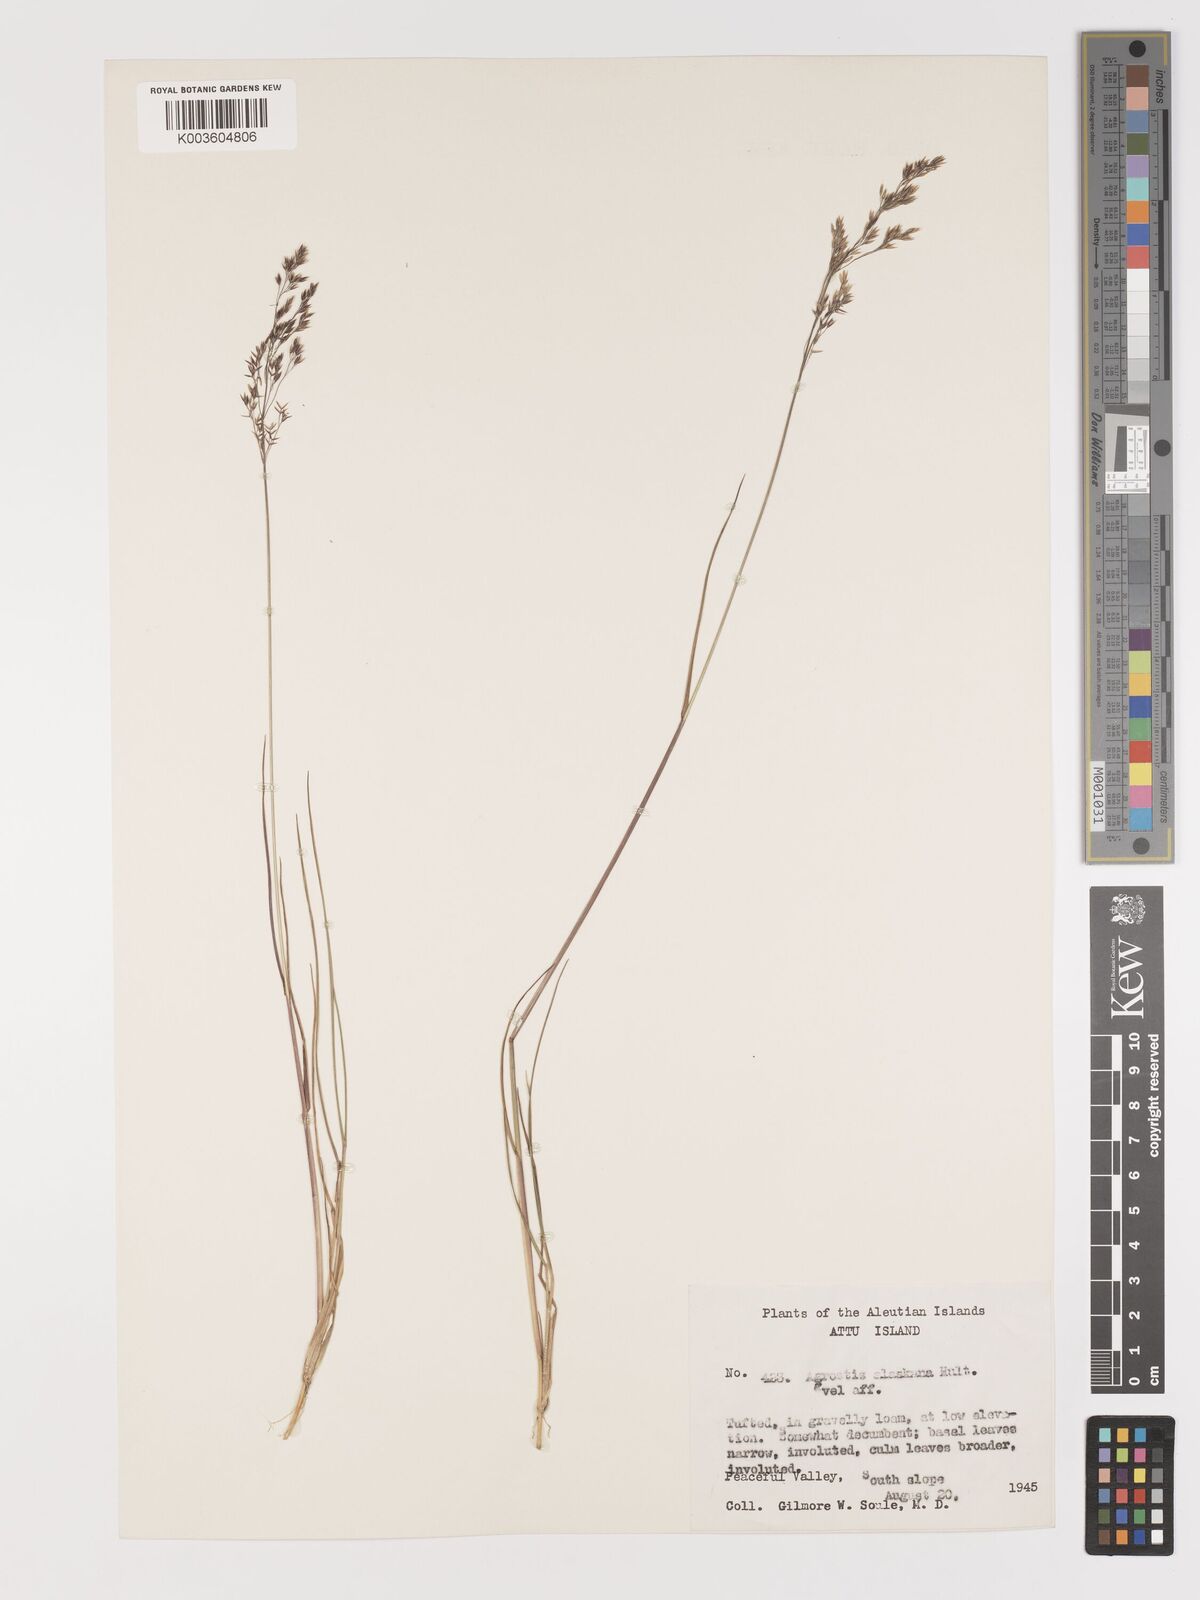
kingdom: Plantae
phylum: Tracheophyta
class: Liliopsida
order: Poales
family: Poaceae
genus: Agrostis
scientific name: Agrostis
